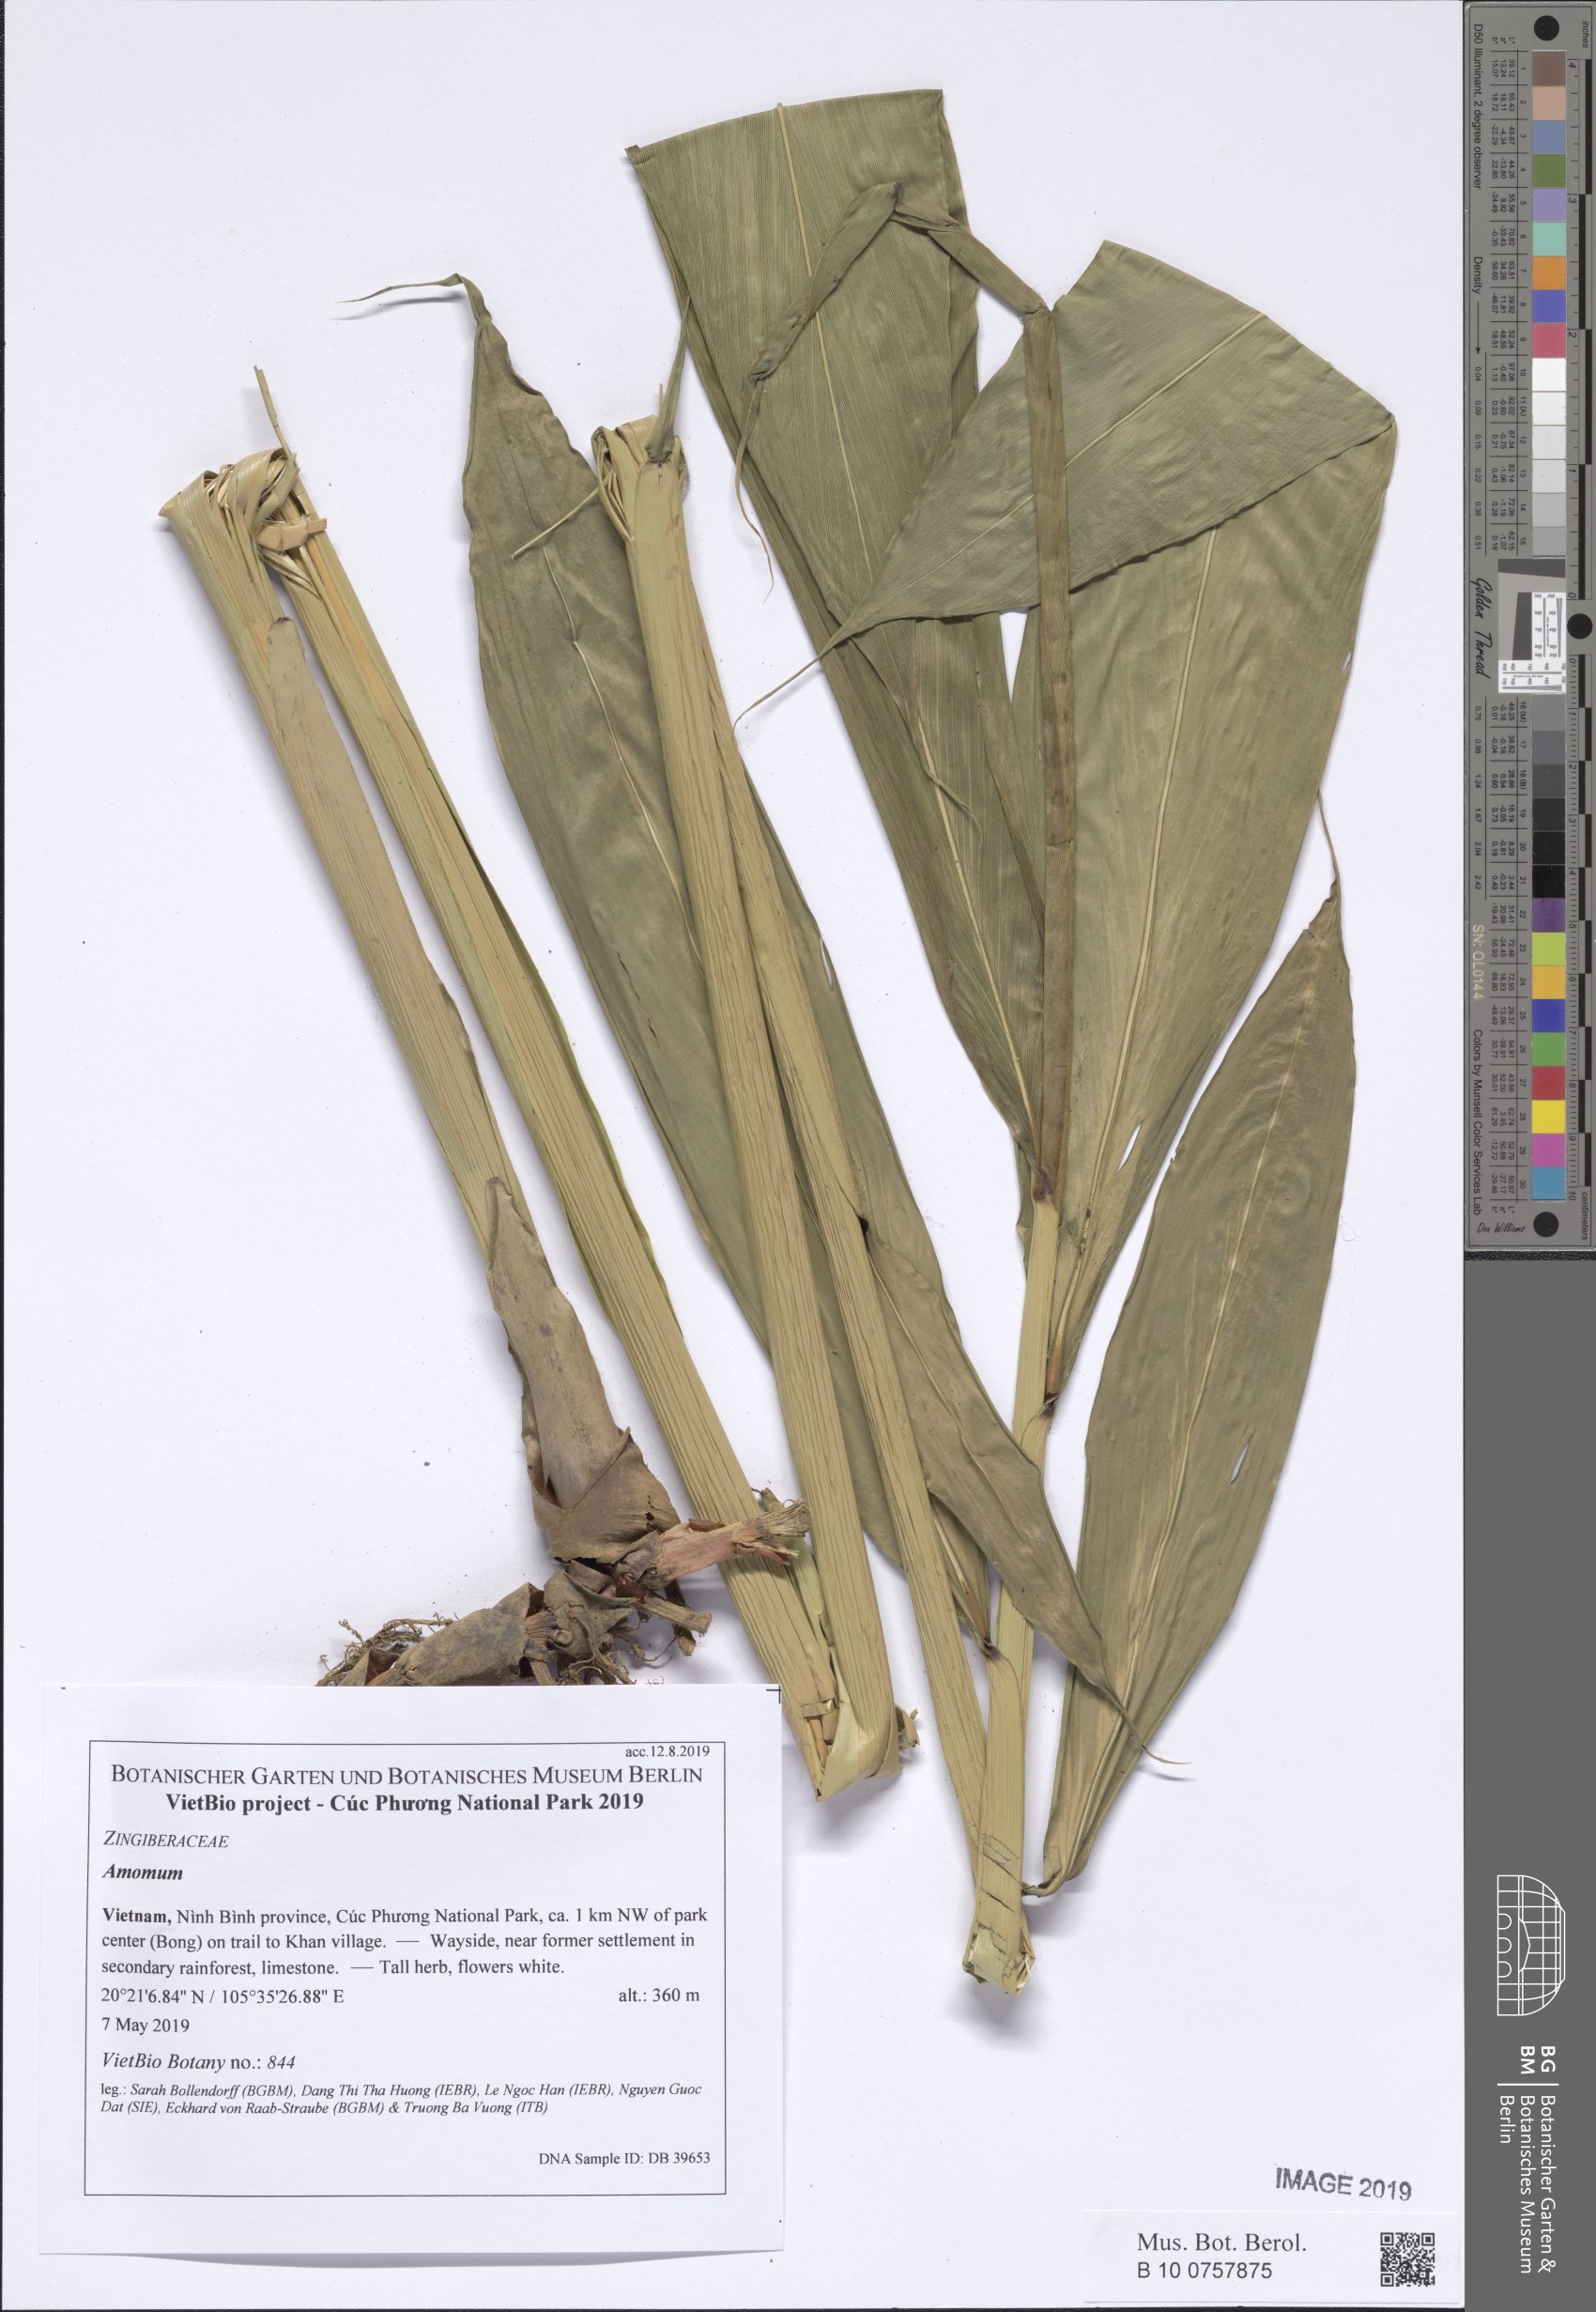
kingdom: Plantae
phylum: Tracheophyta
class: Liliopsida
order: Zingiberales
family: Zingiberaceae
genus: Amomum
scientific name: Amomum
